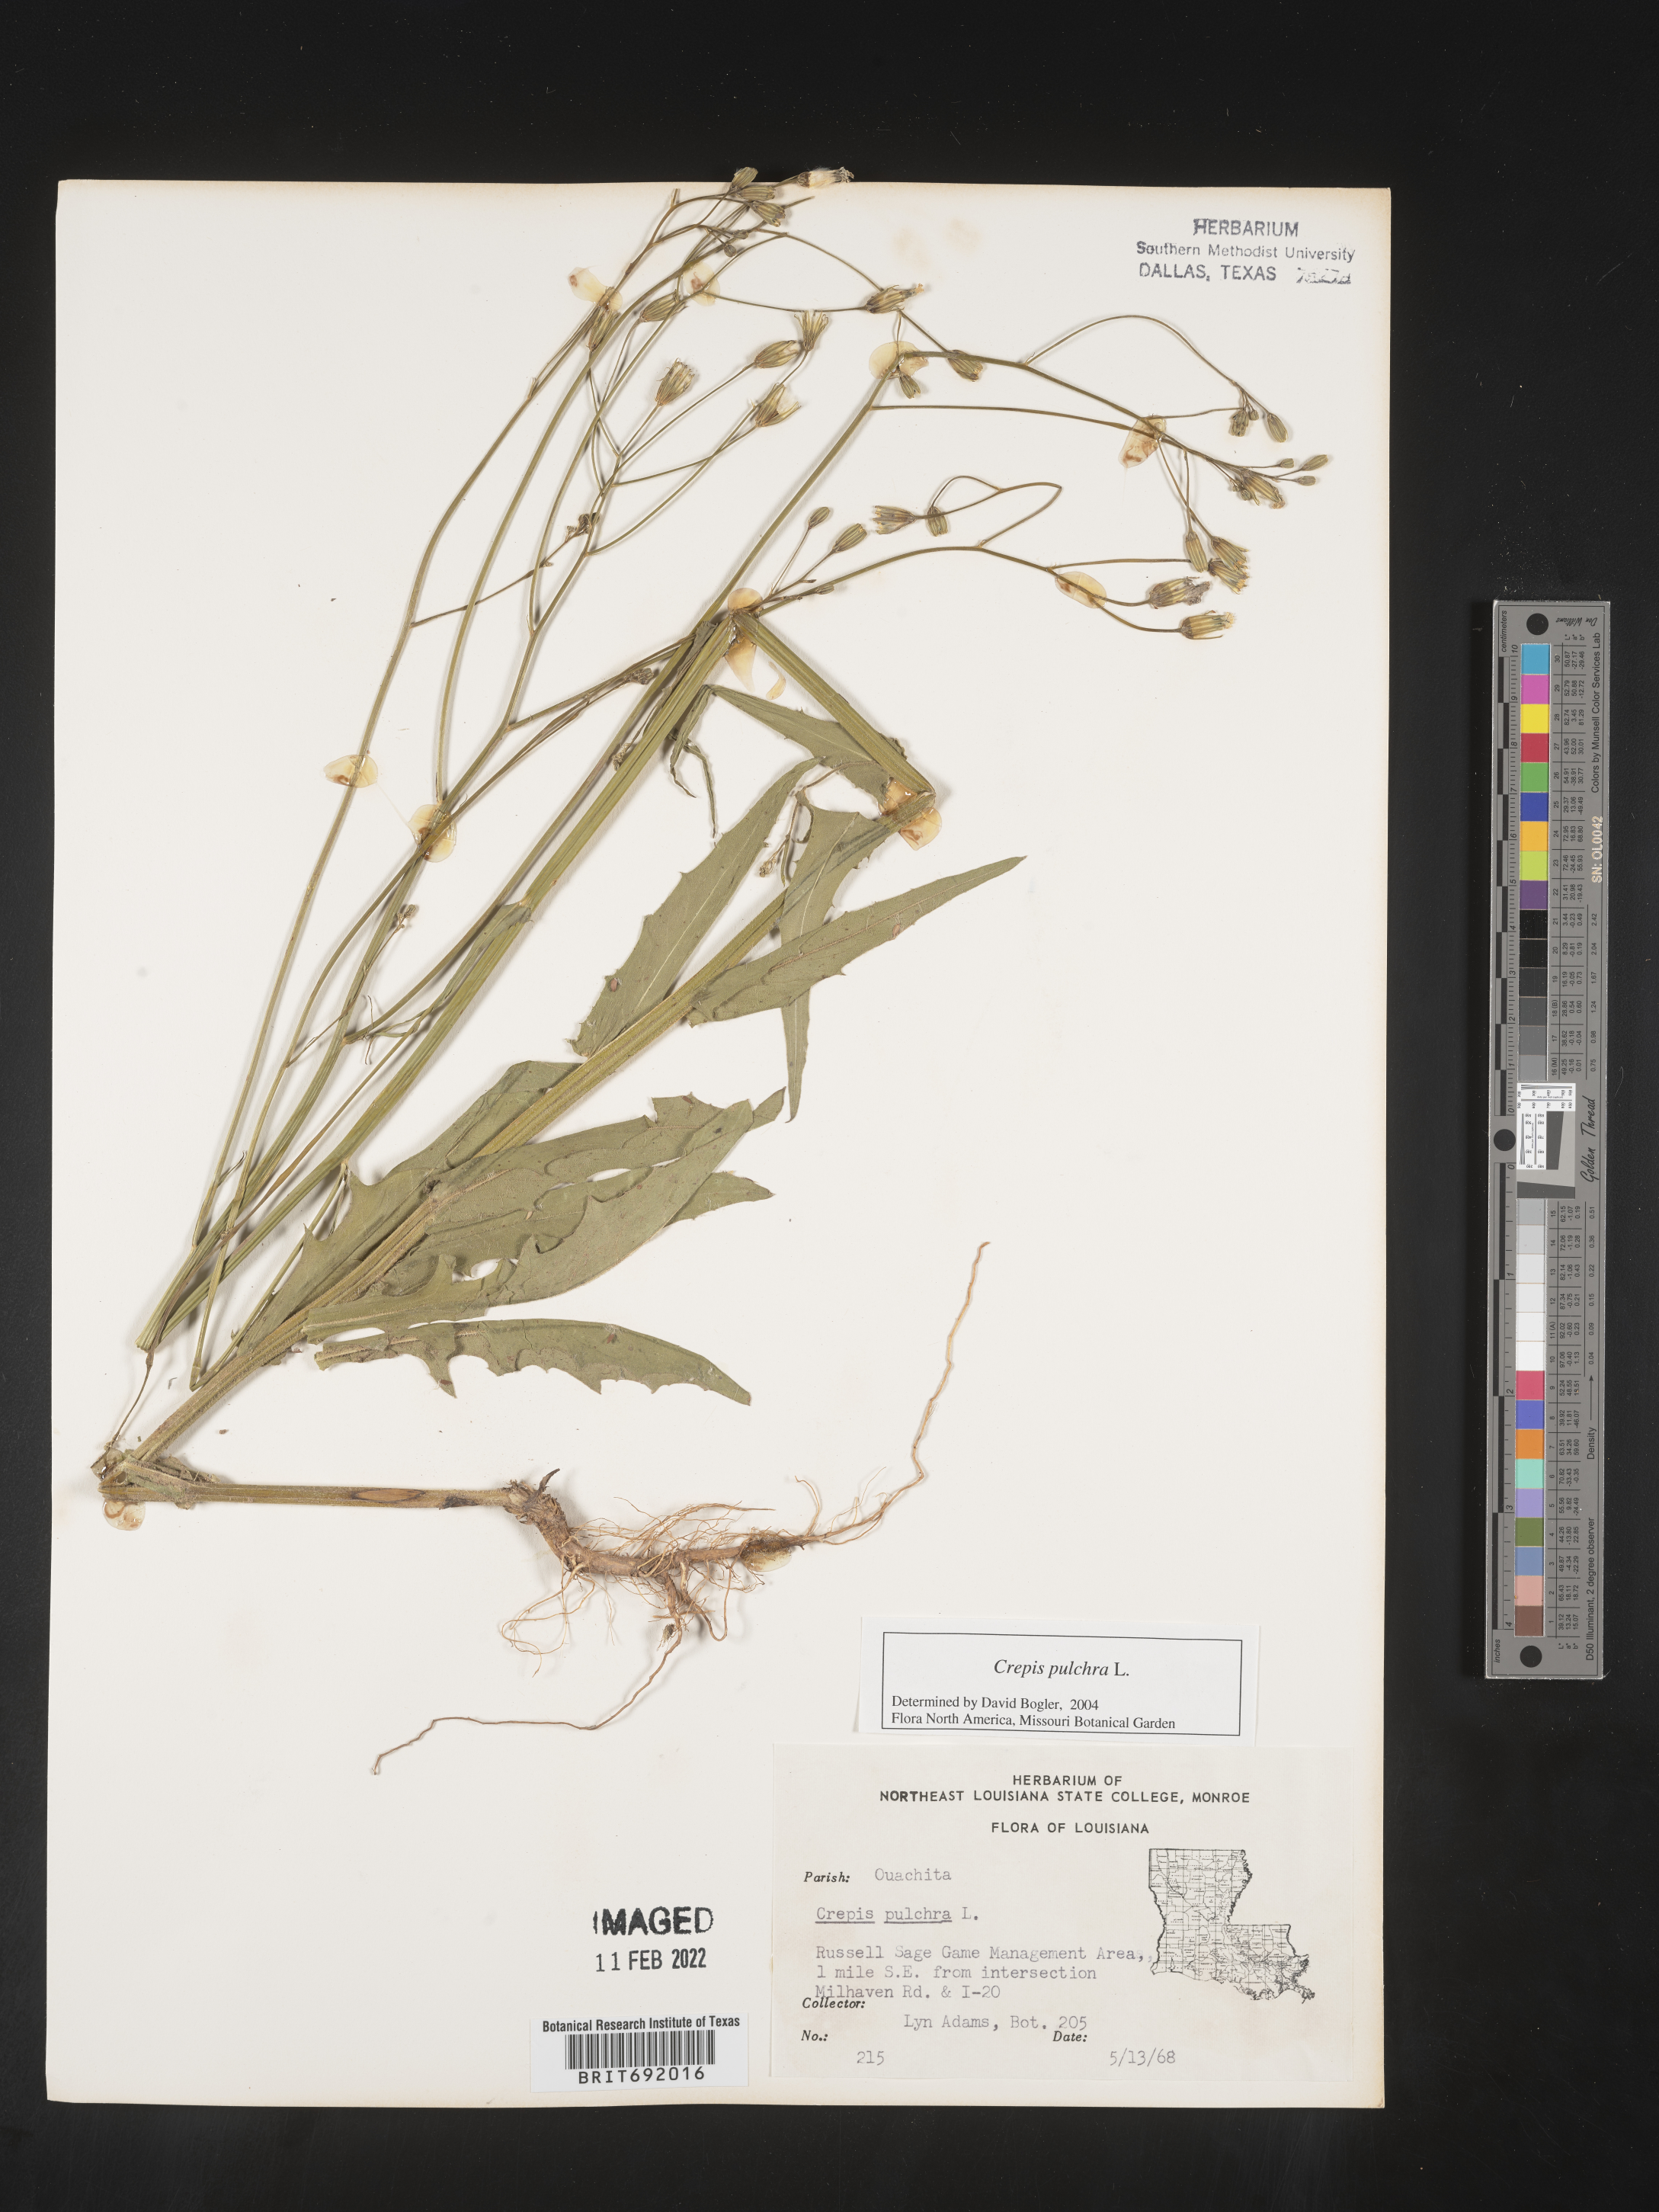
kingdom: Plantae
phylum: Tracheophyta
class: Magnoliopsida
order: Asterales
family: Asteraceae
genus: Crepis
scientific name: Crepis pulchra
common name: Hawk's-beard
